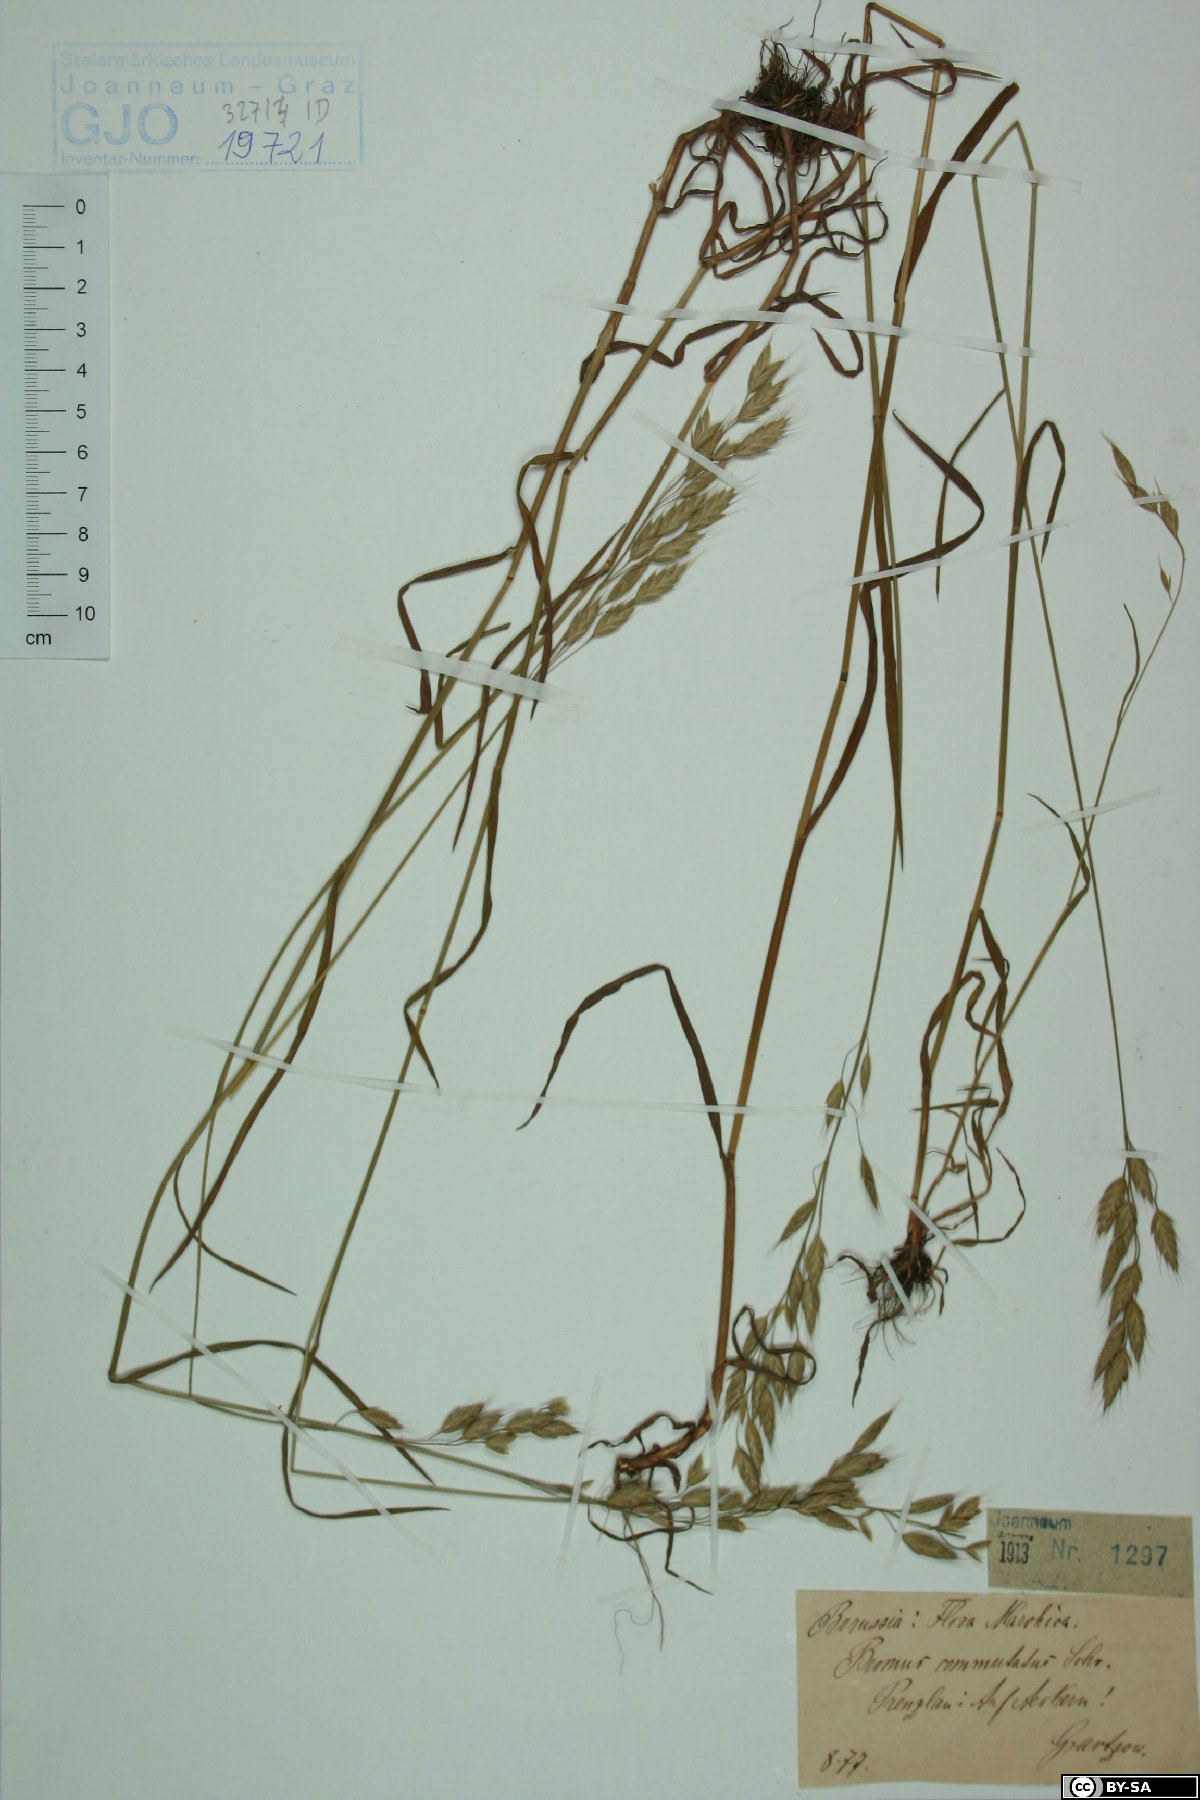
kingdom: Plantae
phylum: Tracheophyta
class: Liliopsida
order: Poales
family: Poaceae
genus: Bromus
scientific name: Bromus commutatus
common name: Meadow brome
